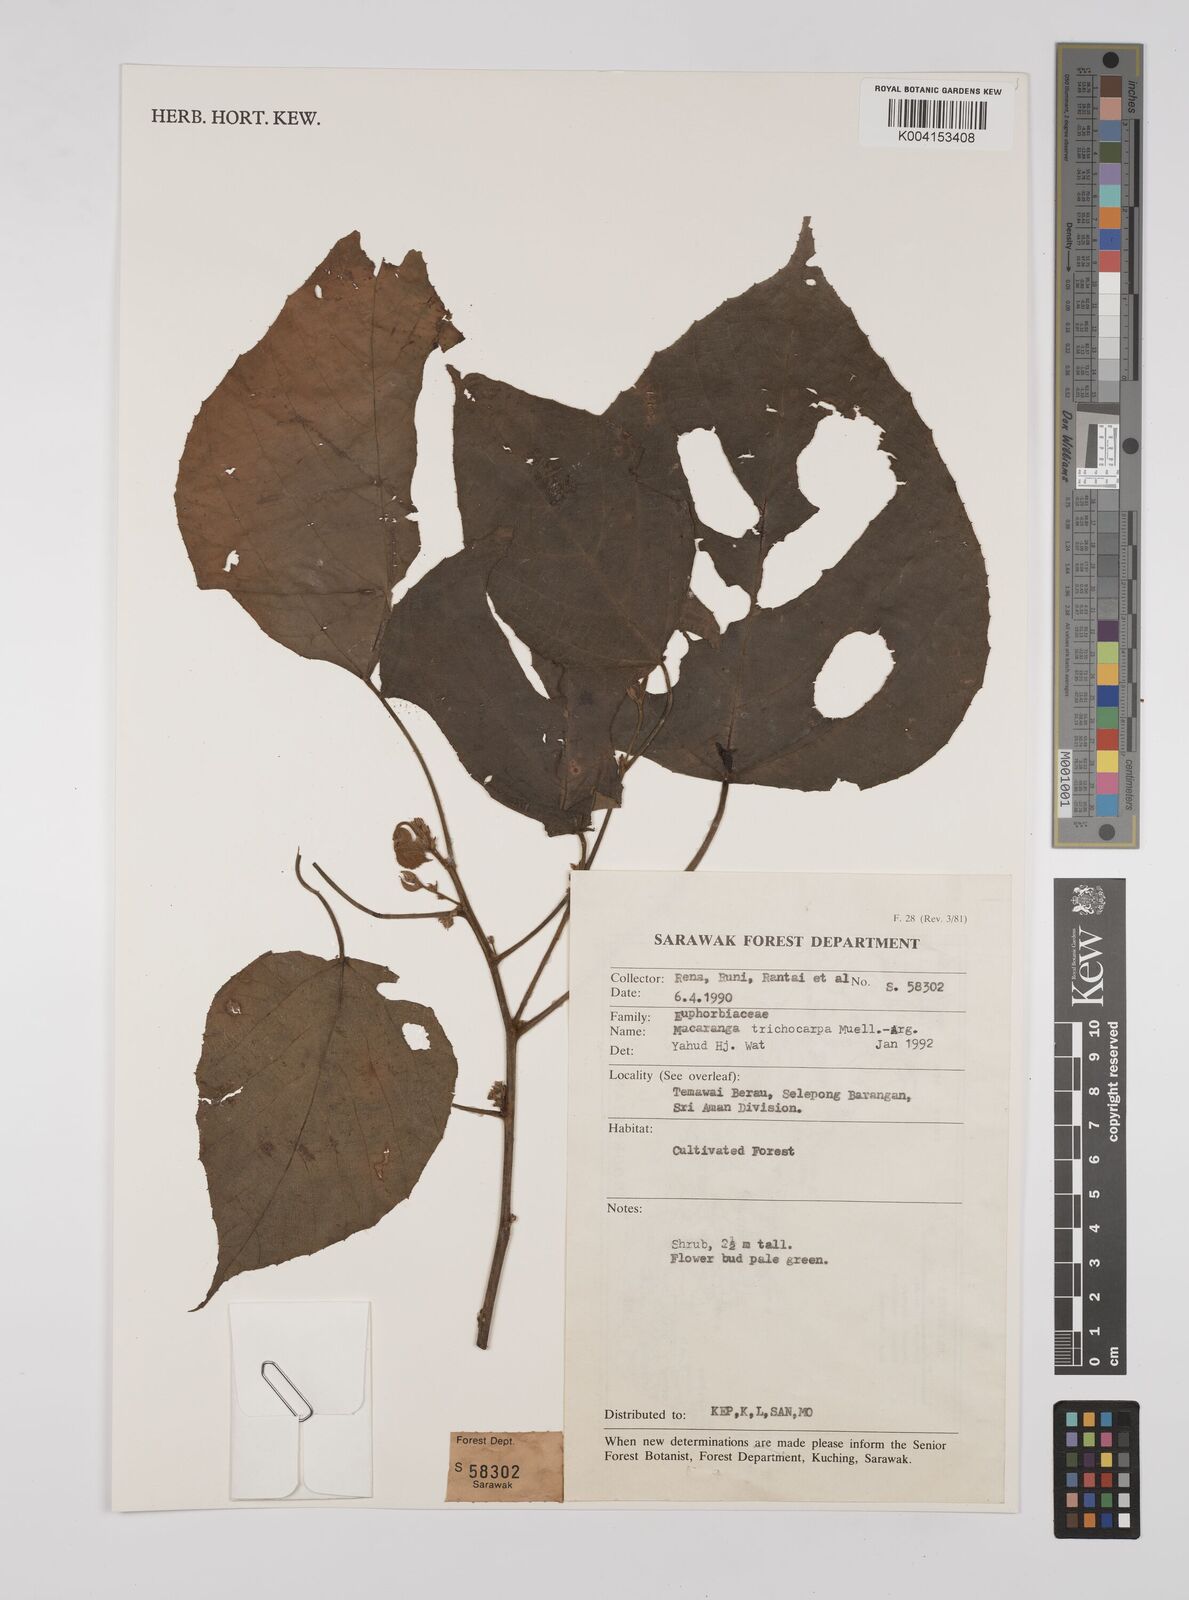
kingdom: Plantae
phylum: Tracheophyta
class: Magnoliopsida
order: Malpighiales
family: Euphorbiaceae
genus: Macaranga
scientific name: Macaranga trichocarpa
